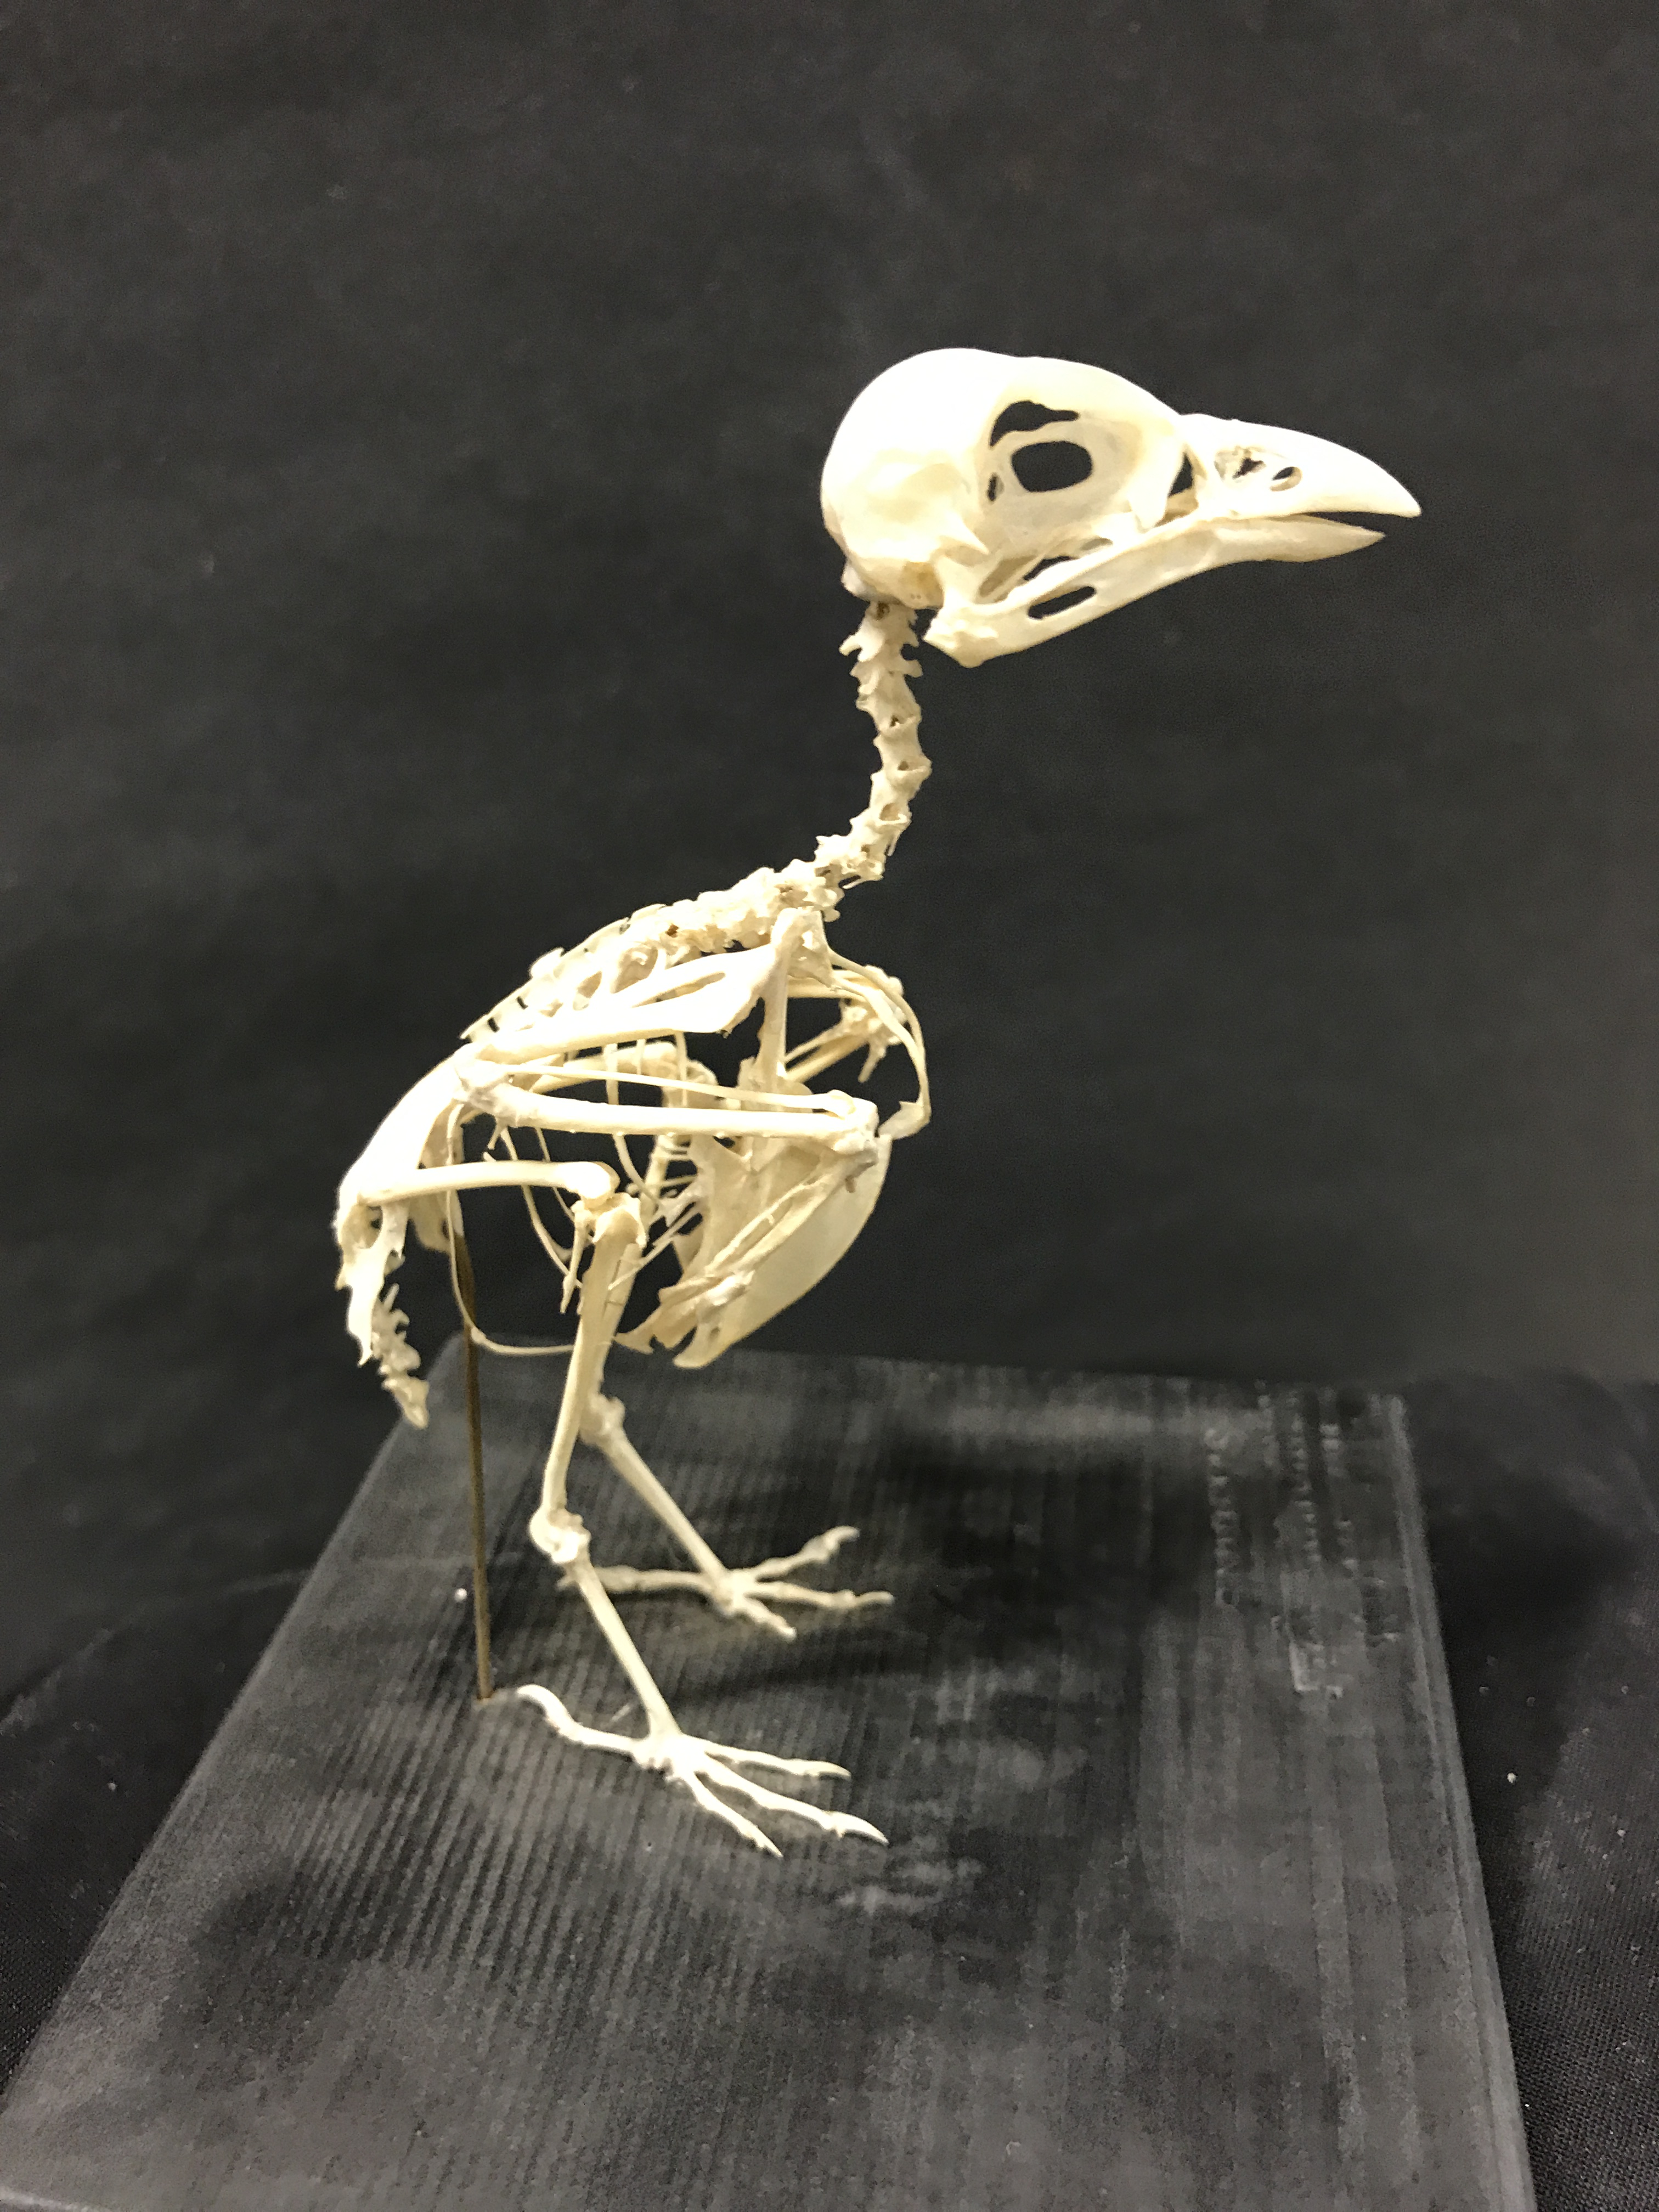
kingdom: Animalia
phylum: Chordata
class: Aves
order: Passeriformes
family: Laniidae
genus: Lanius
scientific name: Lanius collurio
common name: Red-backed shrike
